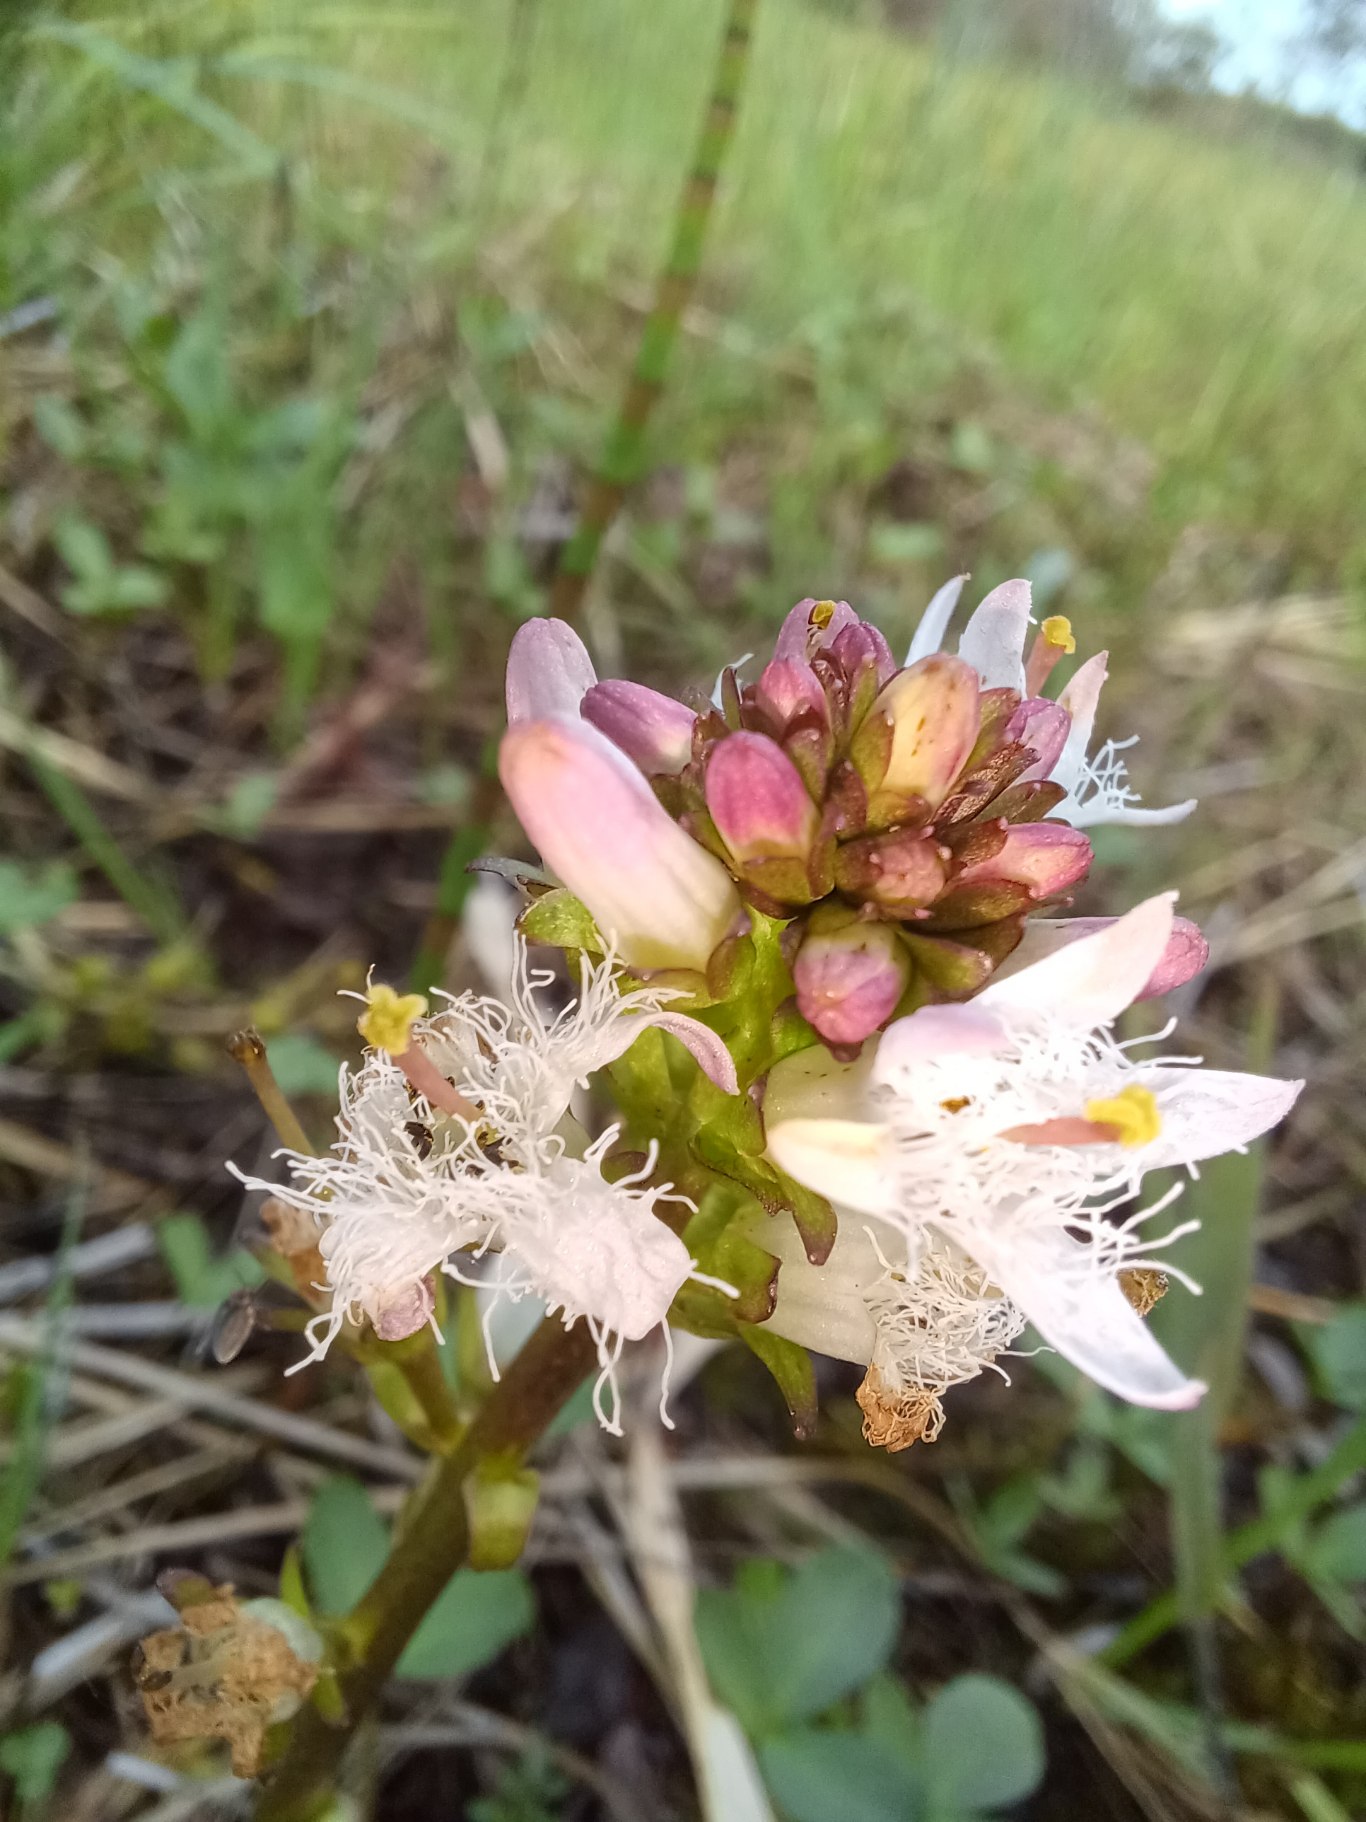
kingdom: Plantae
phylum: Tracheophyta
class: Magnoliopsida
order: Asterales
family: Menyanthaceae
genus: Menyanthes
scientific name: Menyanthes trifoliata
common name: Bukkeblad
